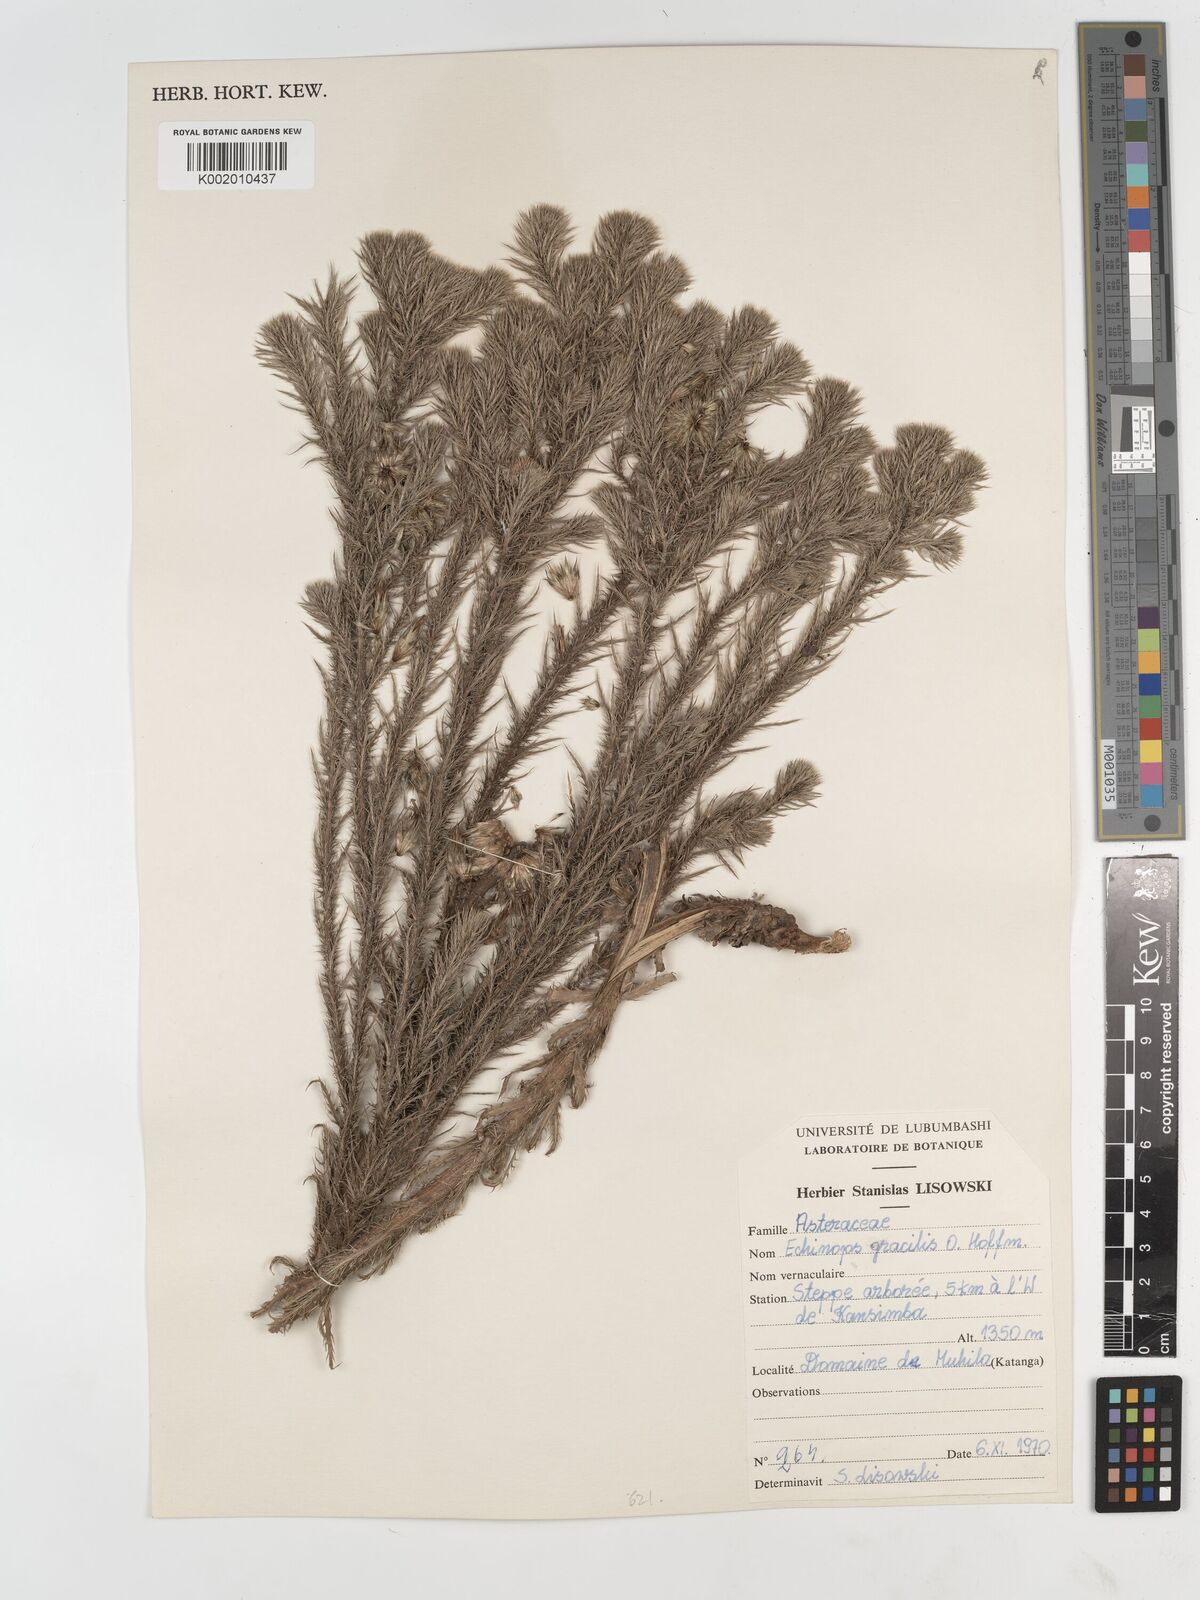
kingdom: Plantae
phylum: Tracheophyta
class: Magnoliopsida
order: Asterales
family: Asteraceae
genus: Echinops
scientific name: Echinops gracilis
